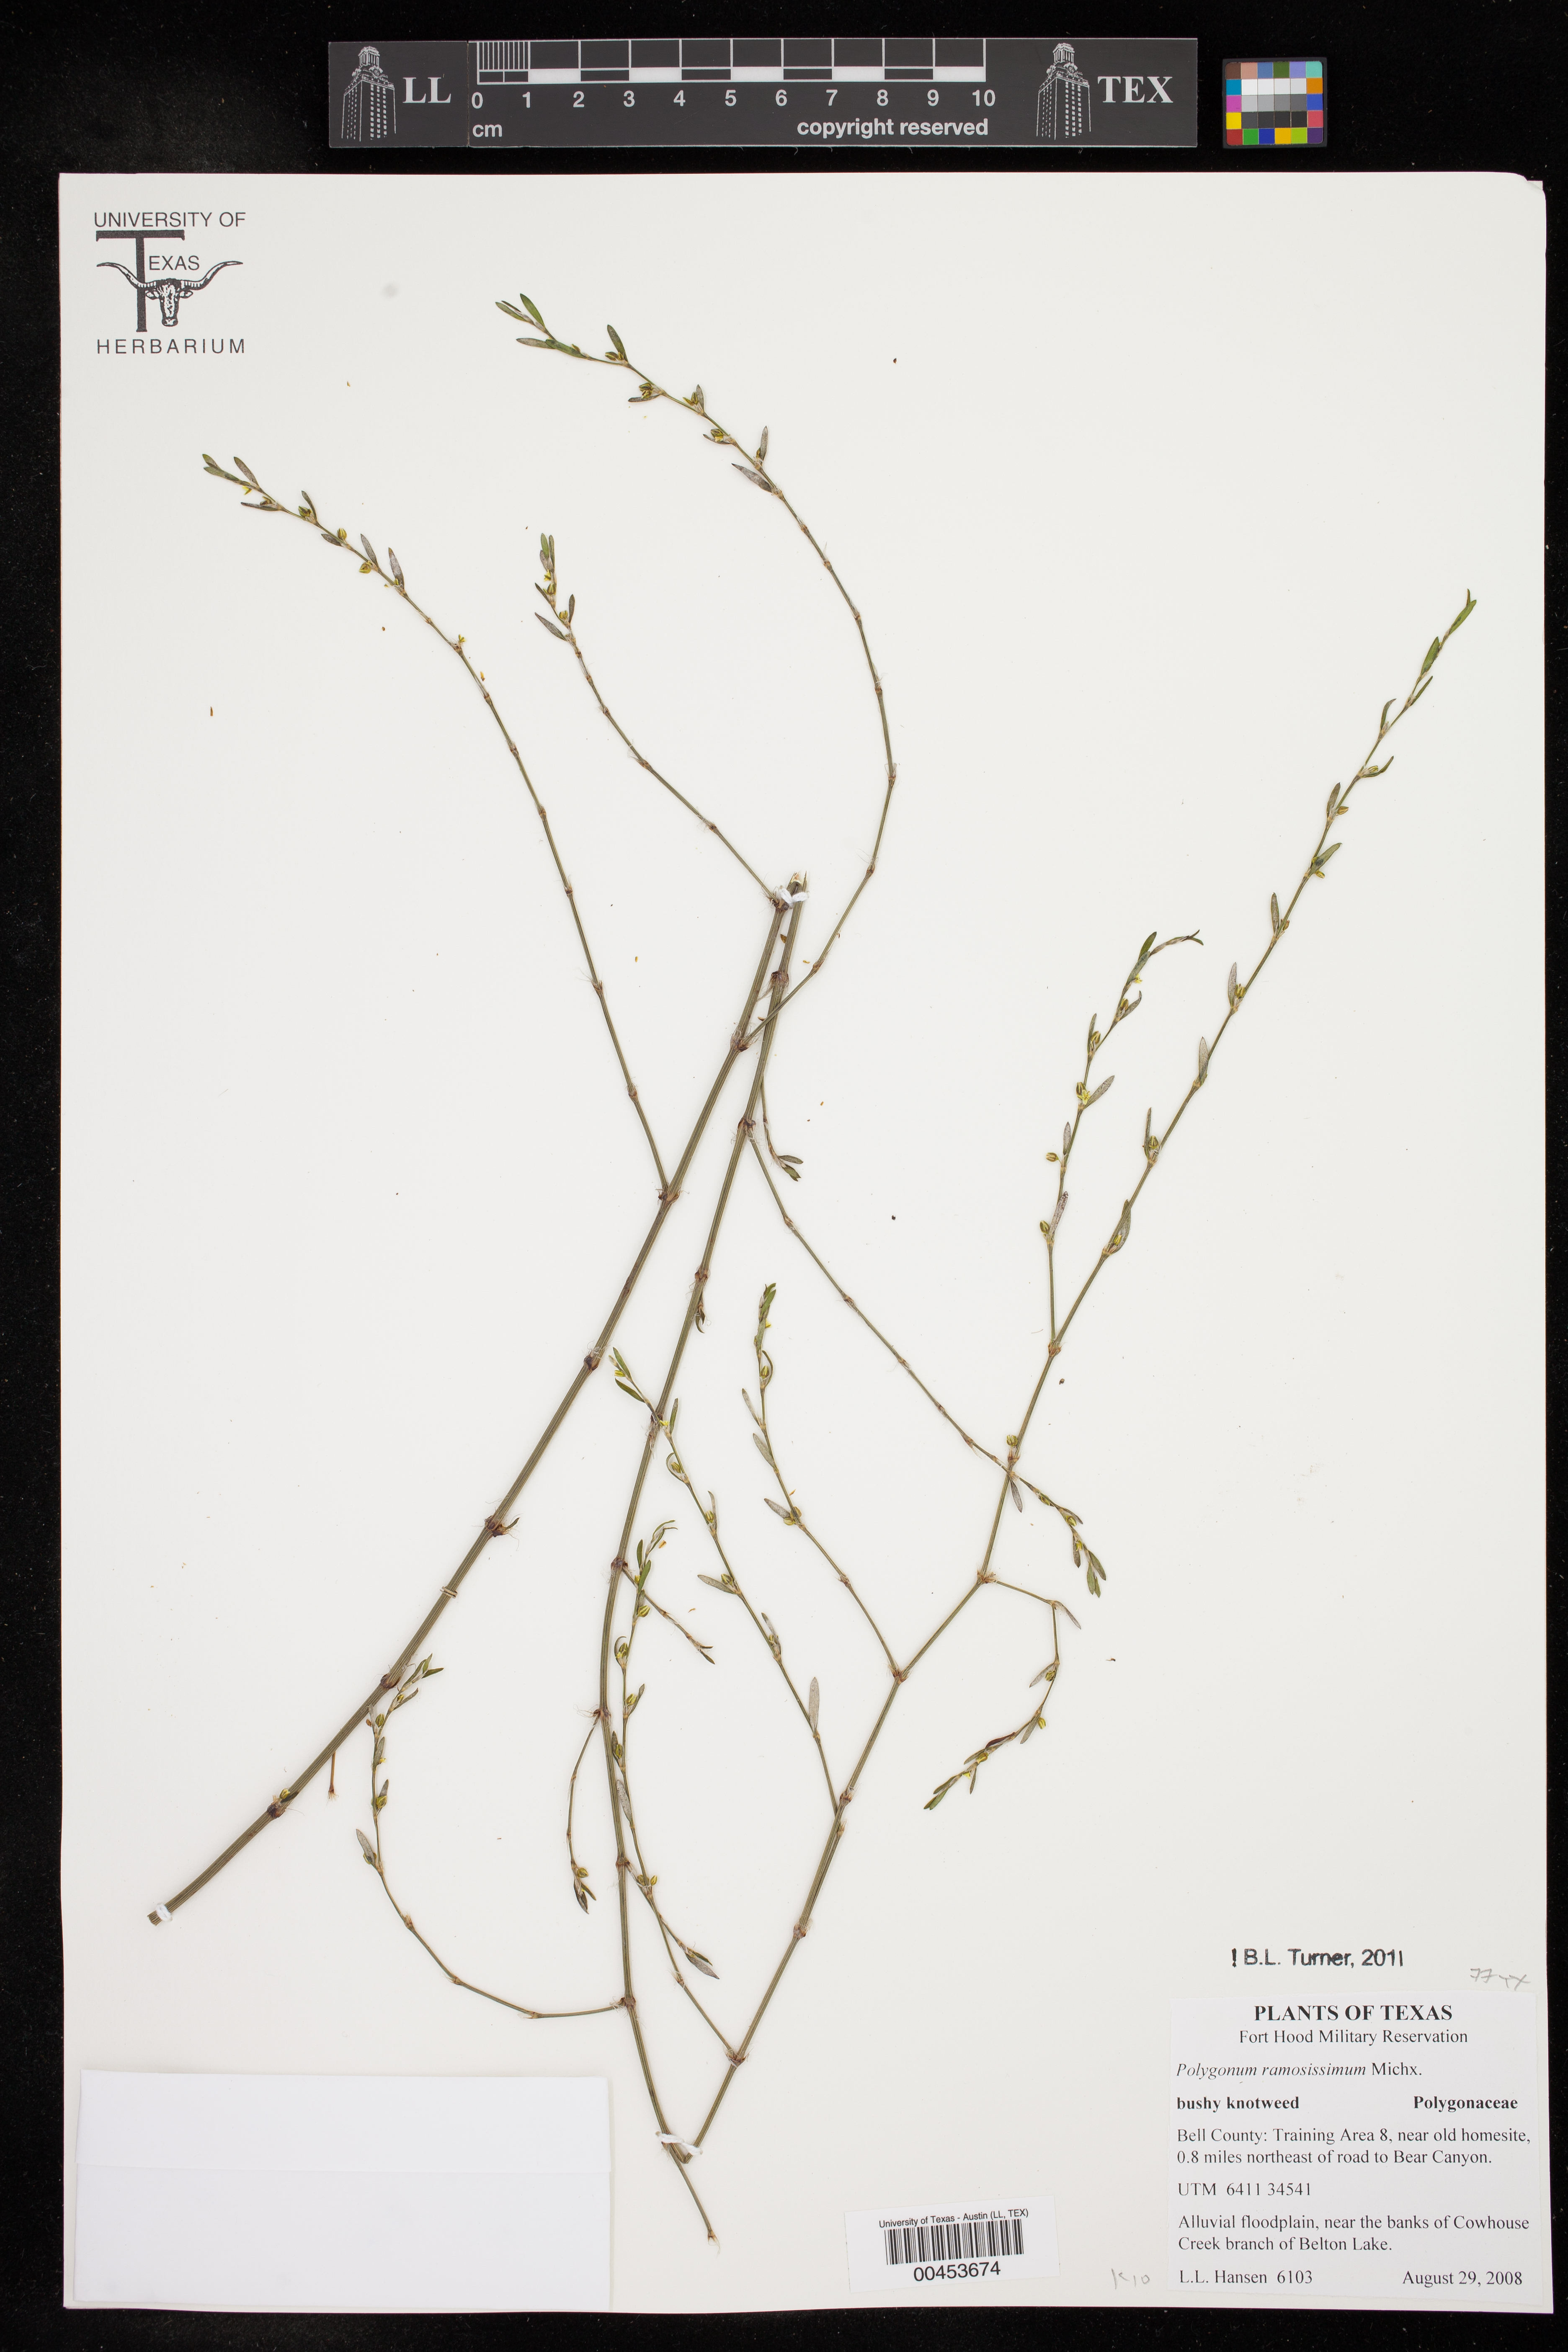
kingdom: Plantae
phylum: Tracheophyta
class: Magnoliopsida
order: Caryophyllales
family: Polygonaceae
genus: Polygonum
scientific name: Polygonum ramosissimum
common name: Bushy knotweed
